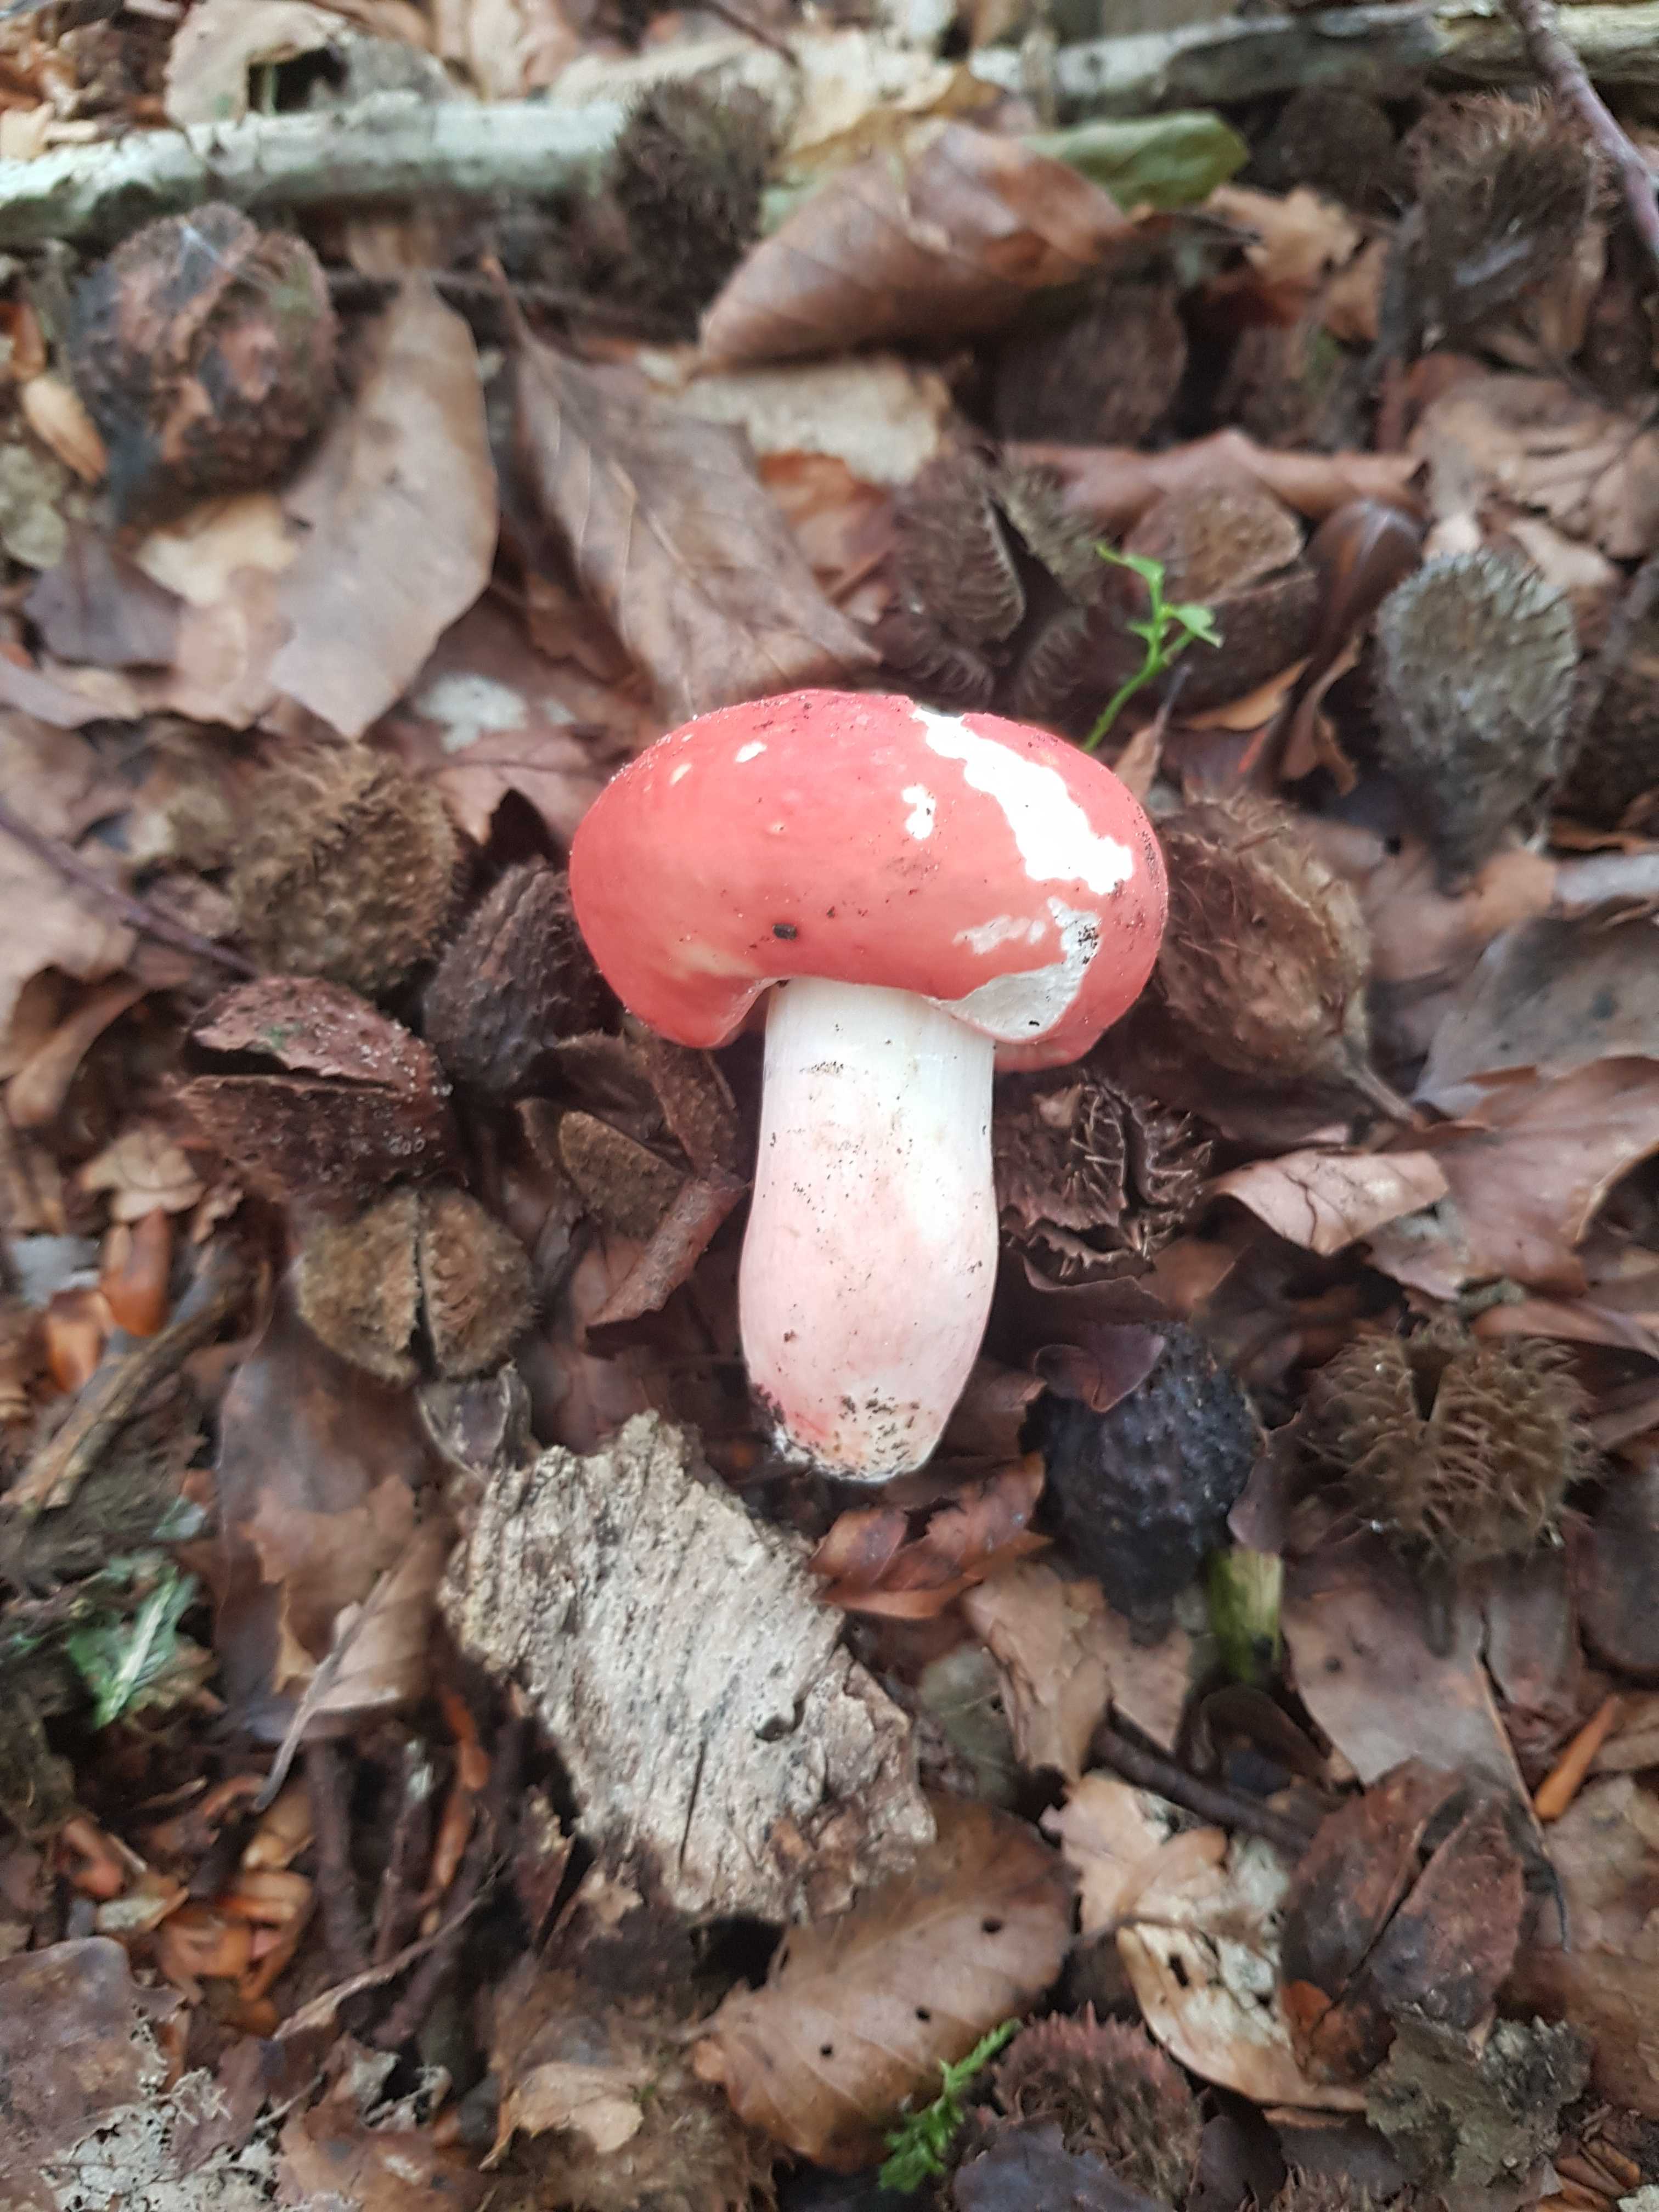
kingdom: Fungi
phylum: Basidiomycota
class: Agaricomycetes
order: Russulales
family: Russulaceae
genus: Russula
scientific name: Russula rosea
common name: fastkødet skørhat
